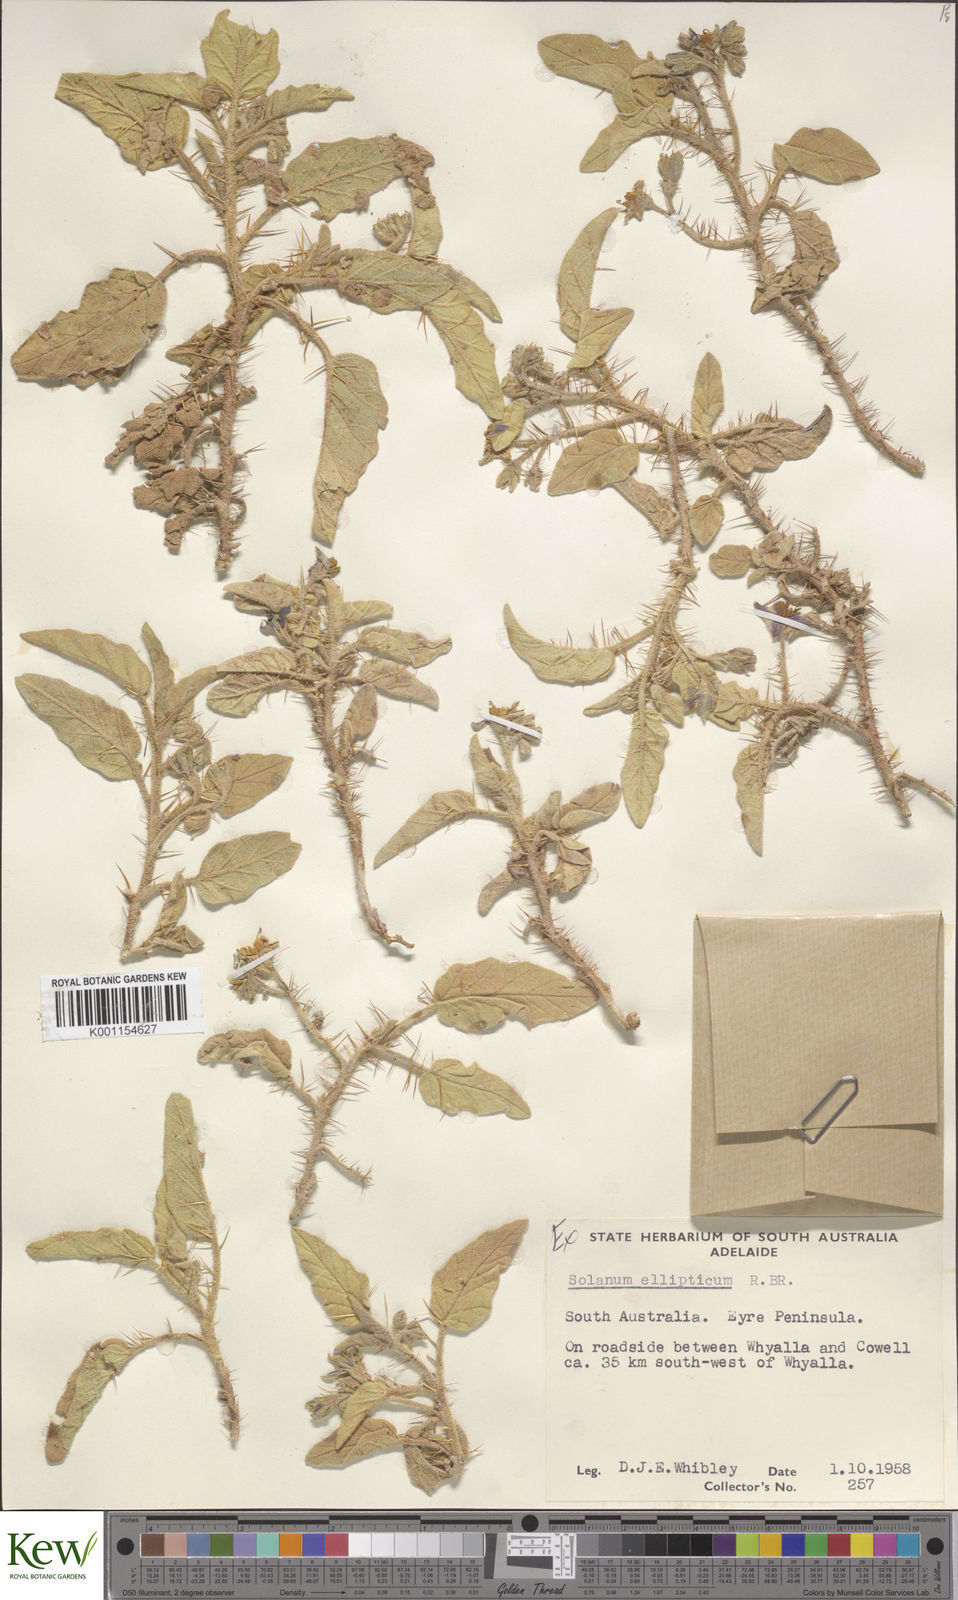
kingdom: Plantae
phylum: Tracheophyta
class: Magnoliopsida
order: Solanales
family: Solanaceae
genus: Solanum
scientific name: Solanum ellipticum
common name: Potato-bush
